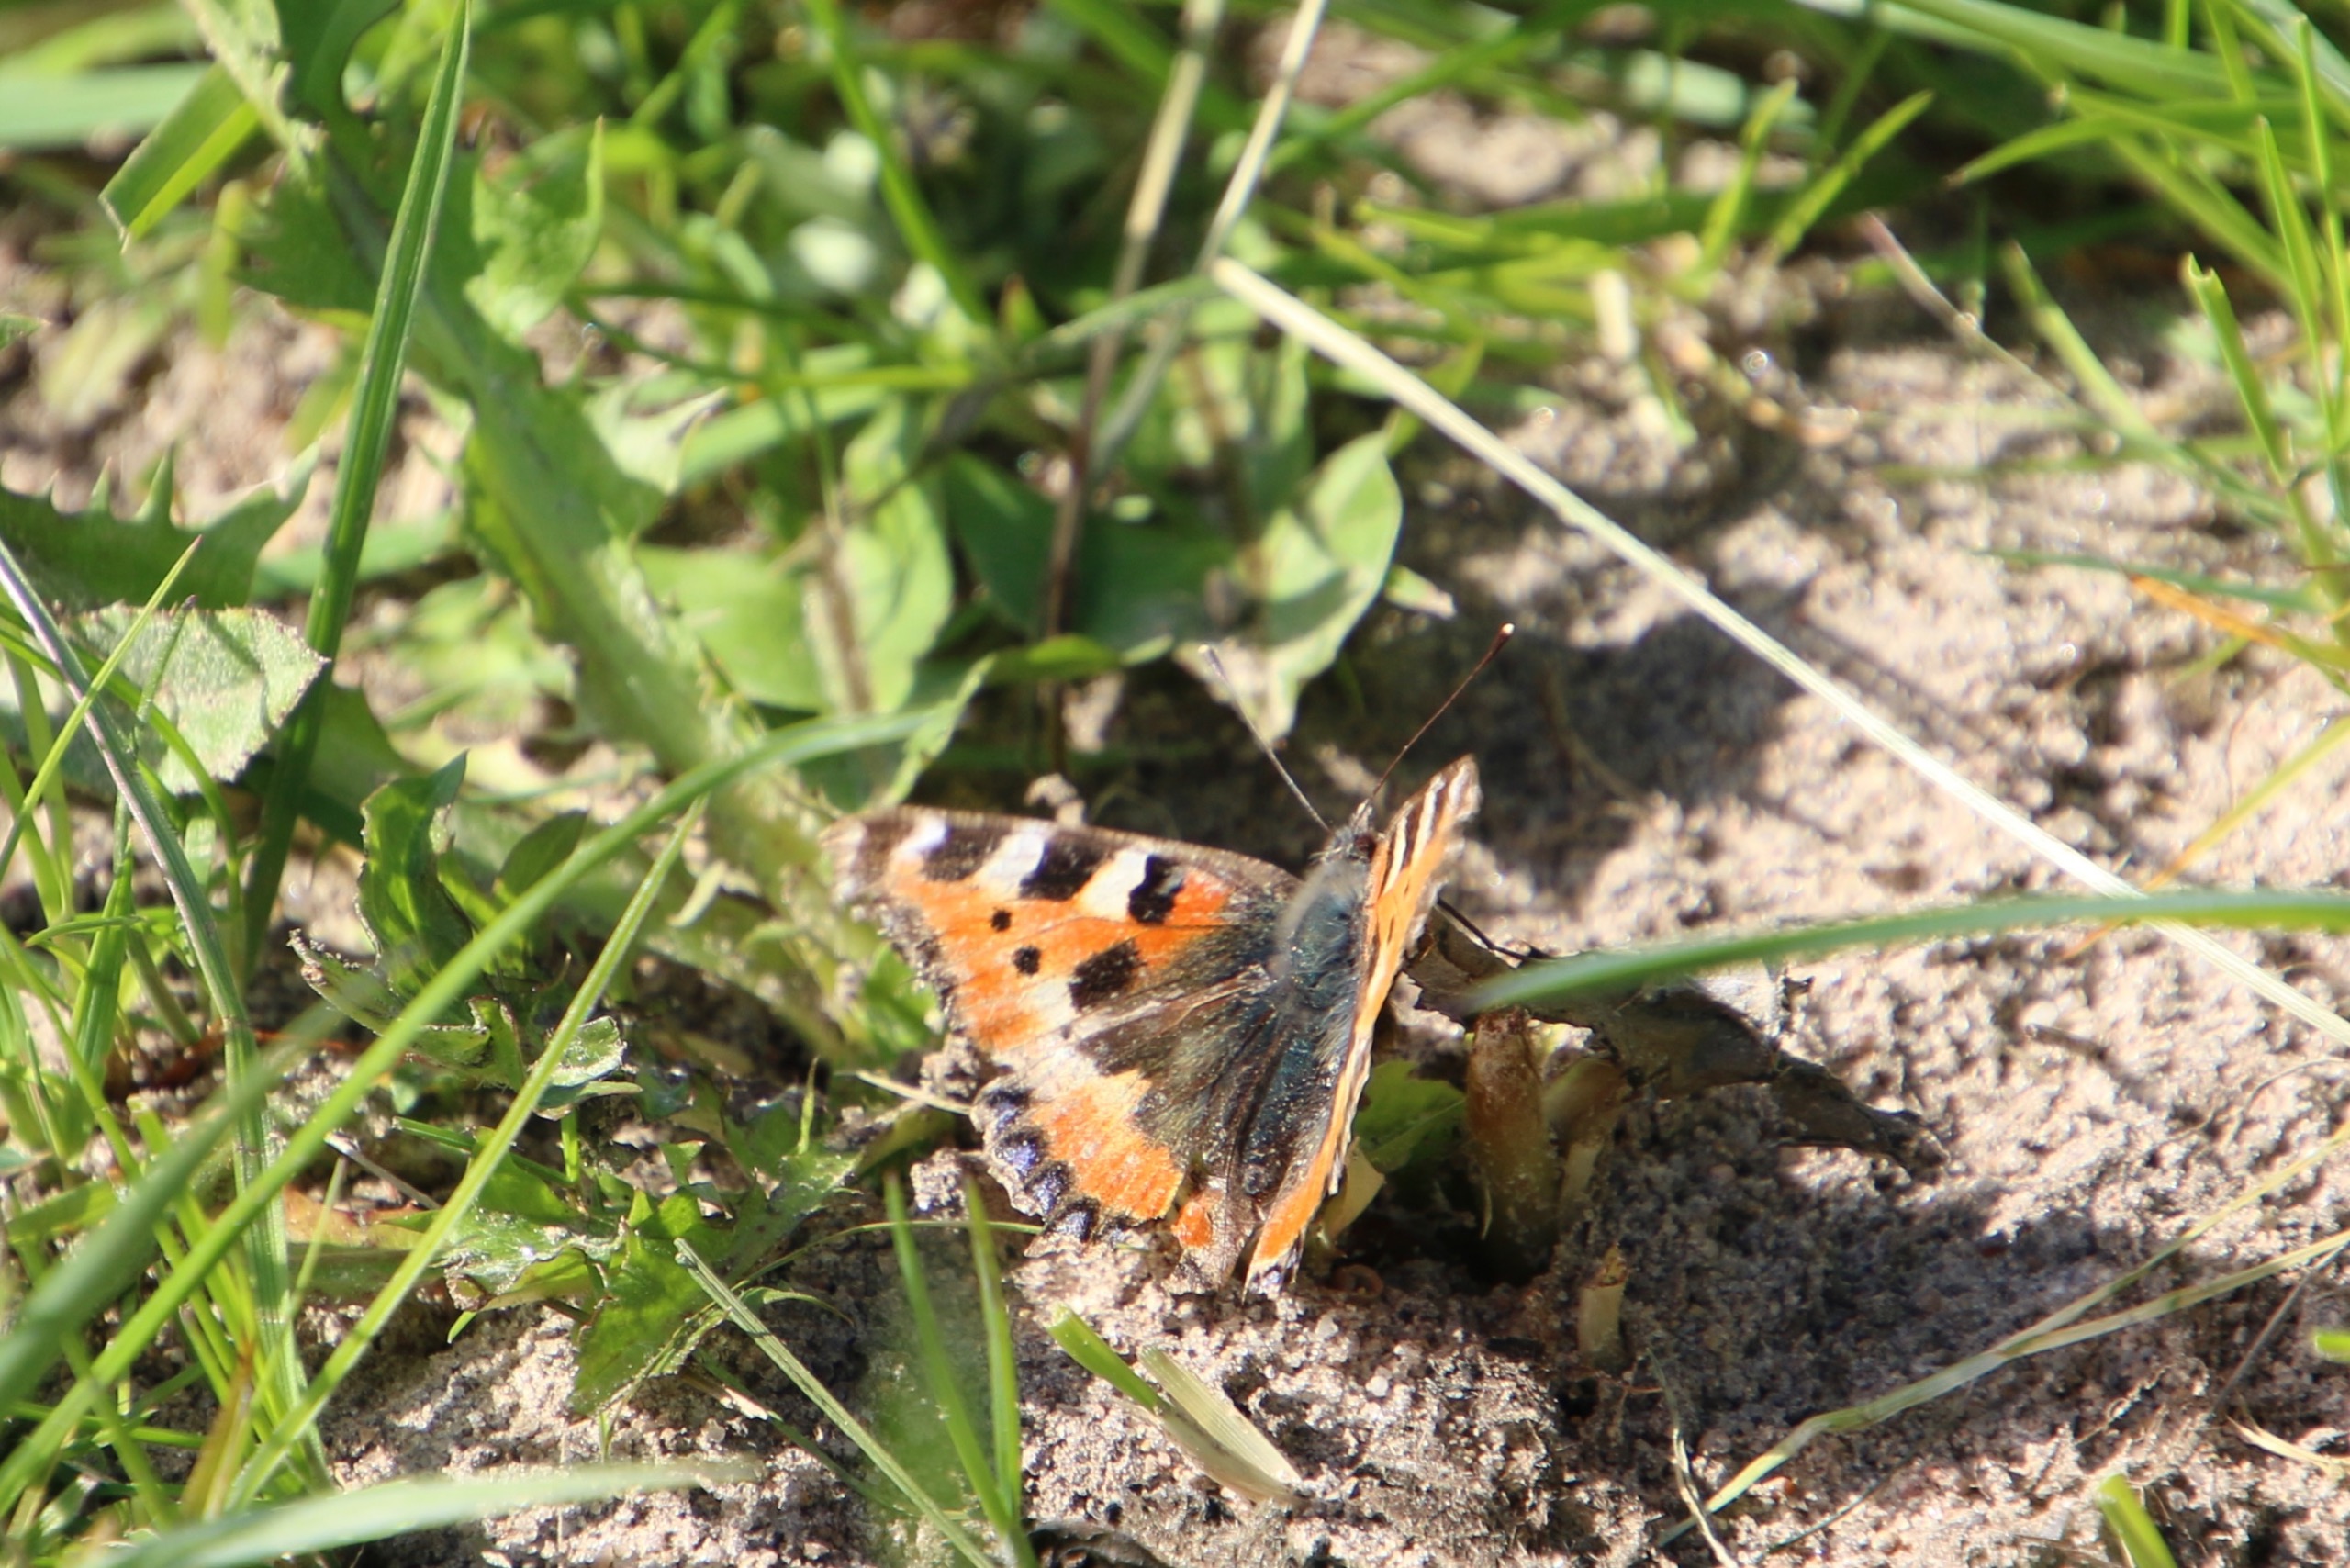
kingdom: Animalia
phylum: Arthropoda
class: Insecta
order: Lepidoptera
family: Nymphalidae
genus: Aglais
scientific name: Aglais urticae
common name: Nældens takvinge
